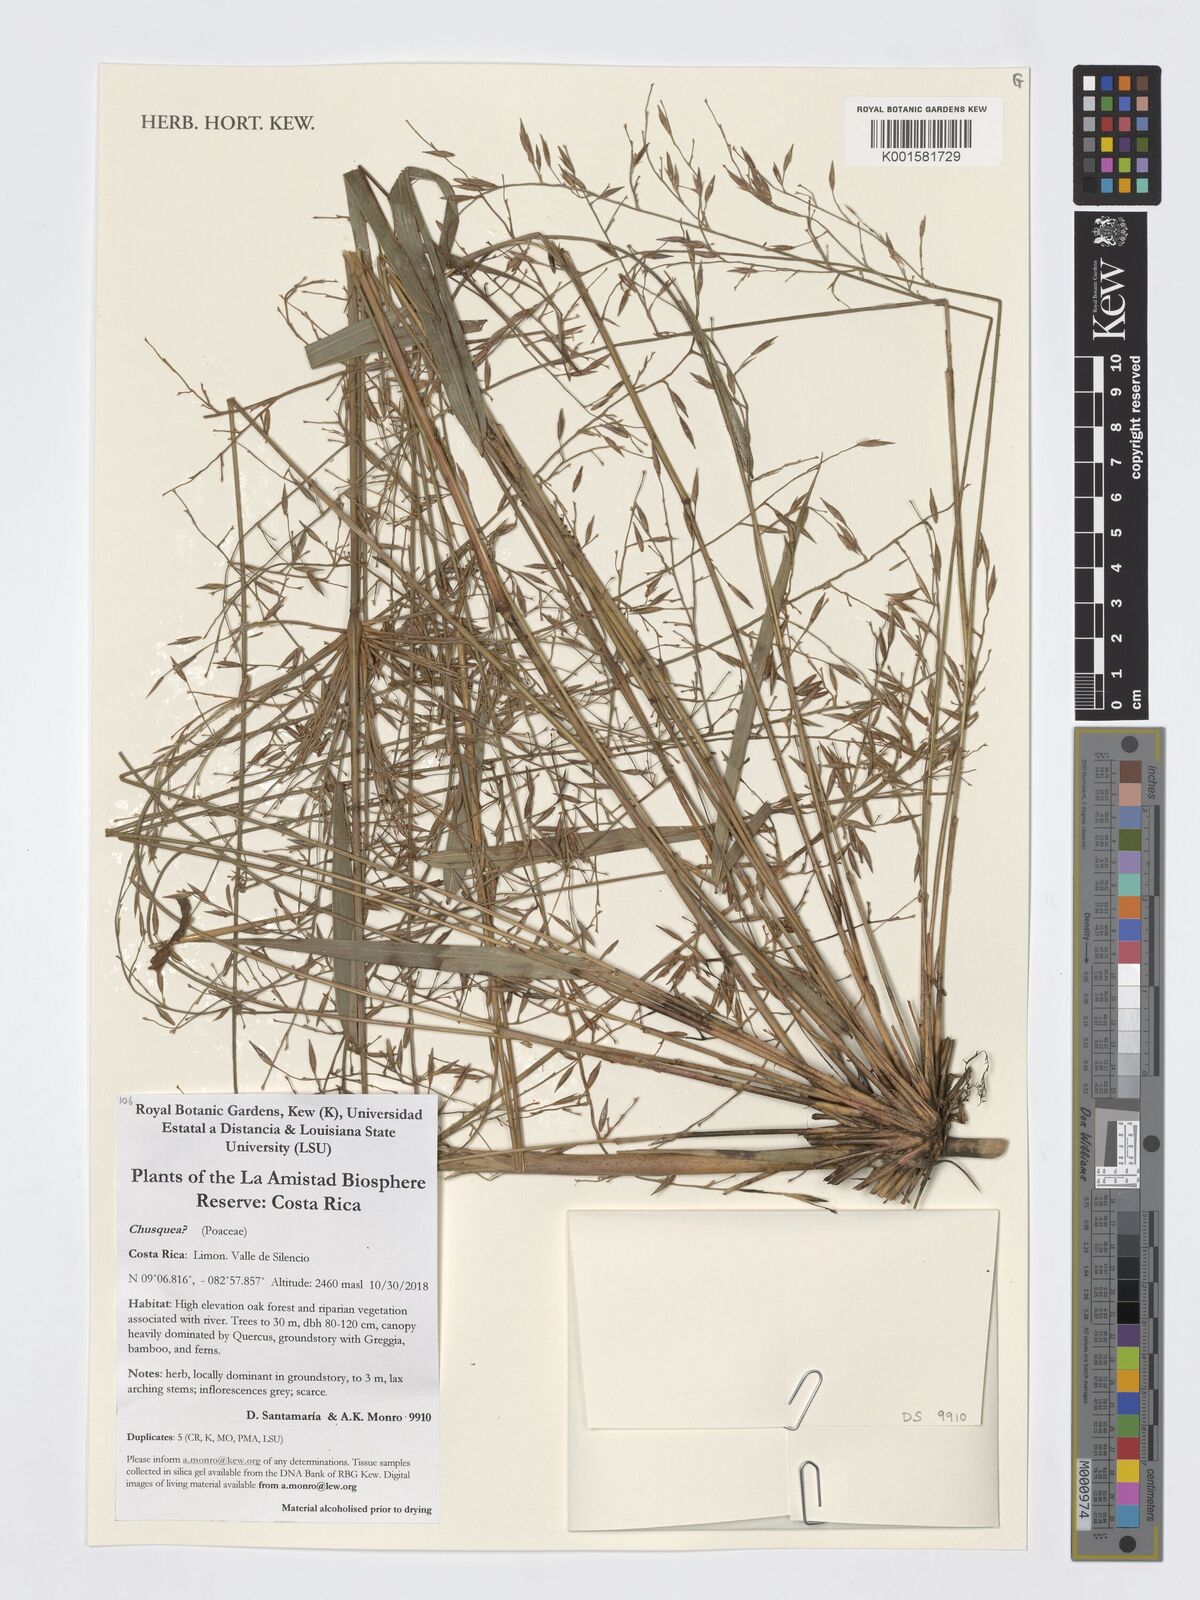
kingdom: Plantae
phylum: Tracheophyta
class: Liliopsida
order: Poales
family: Poaceae
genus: Chusquea
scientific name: Chusquea
